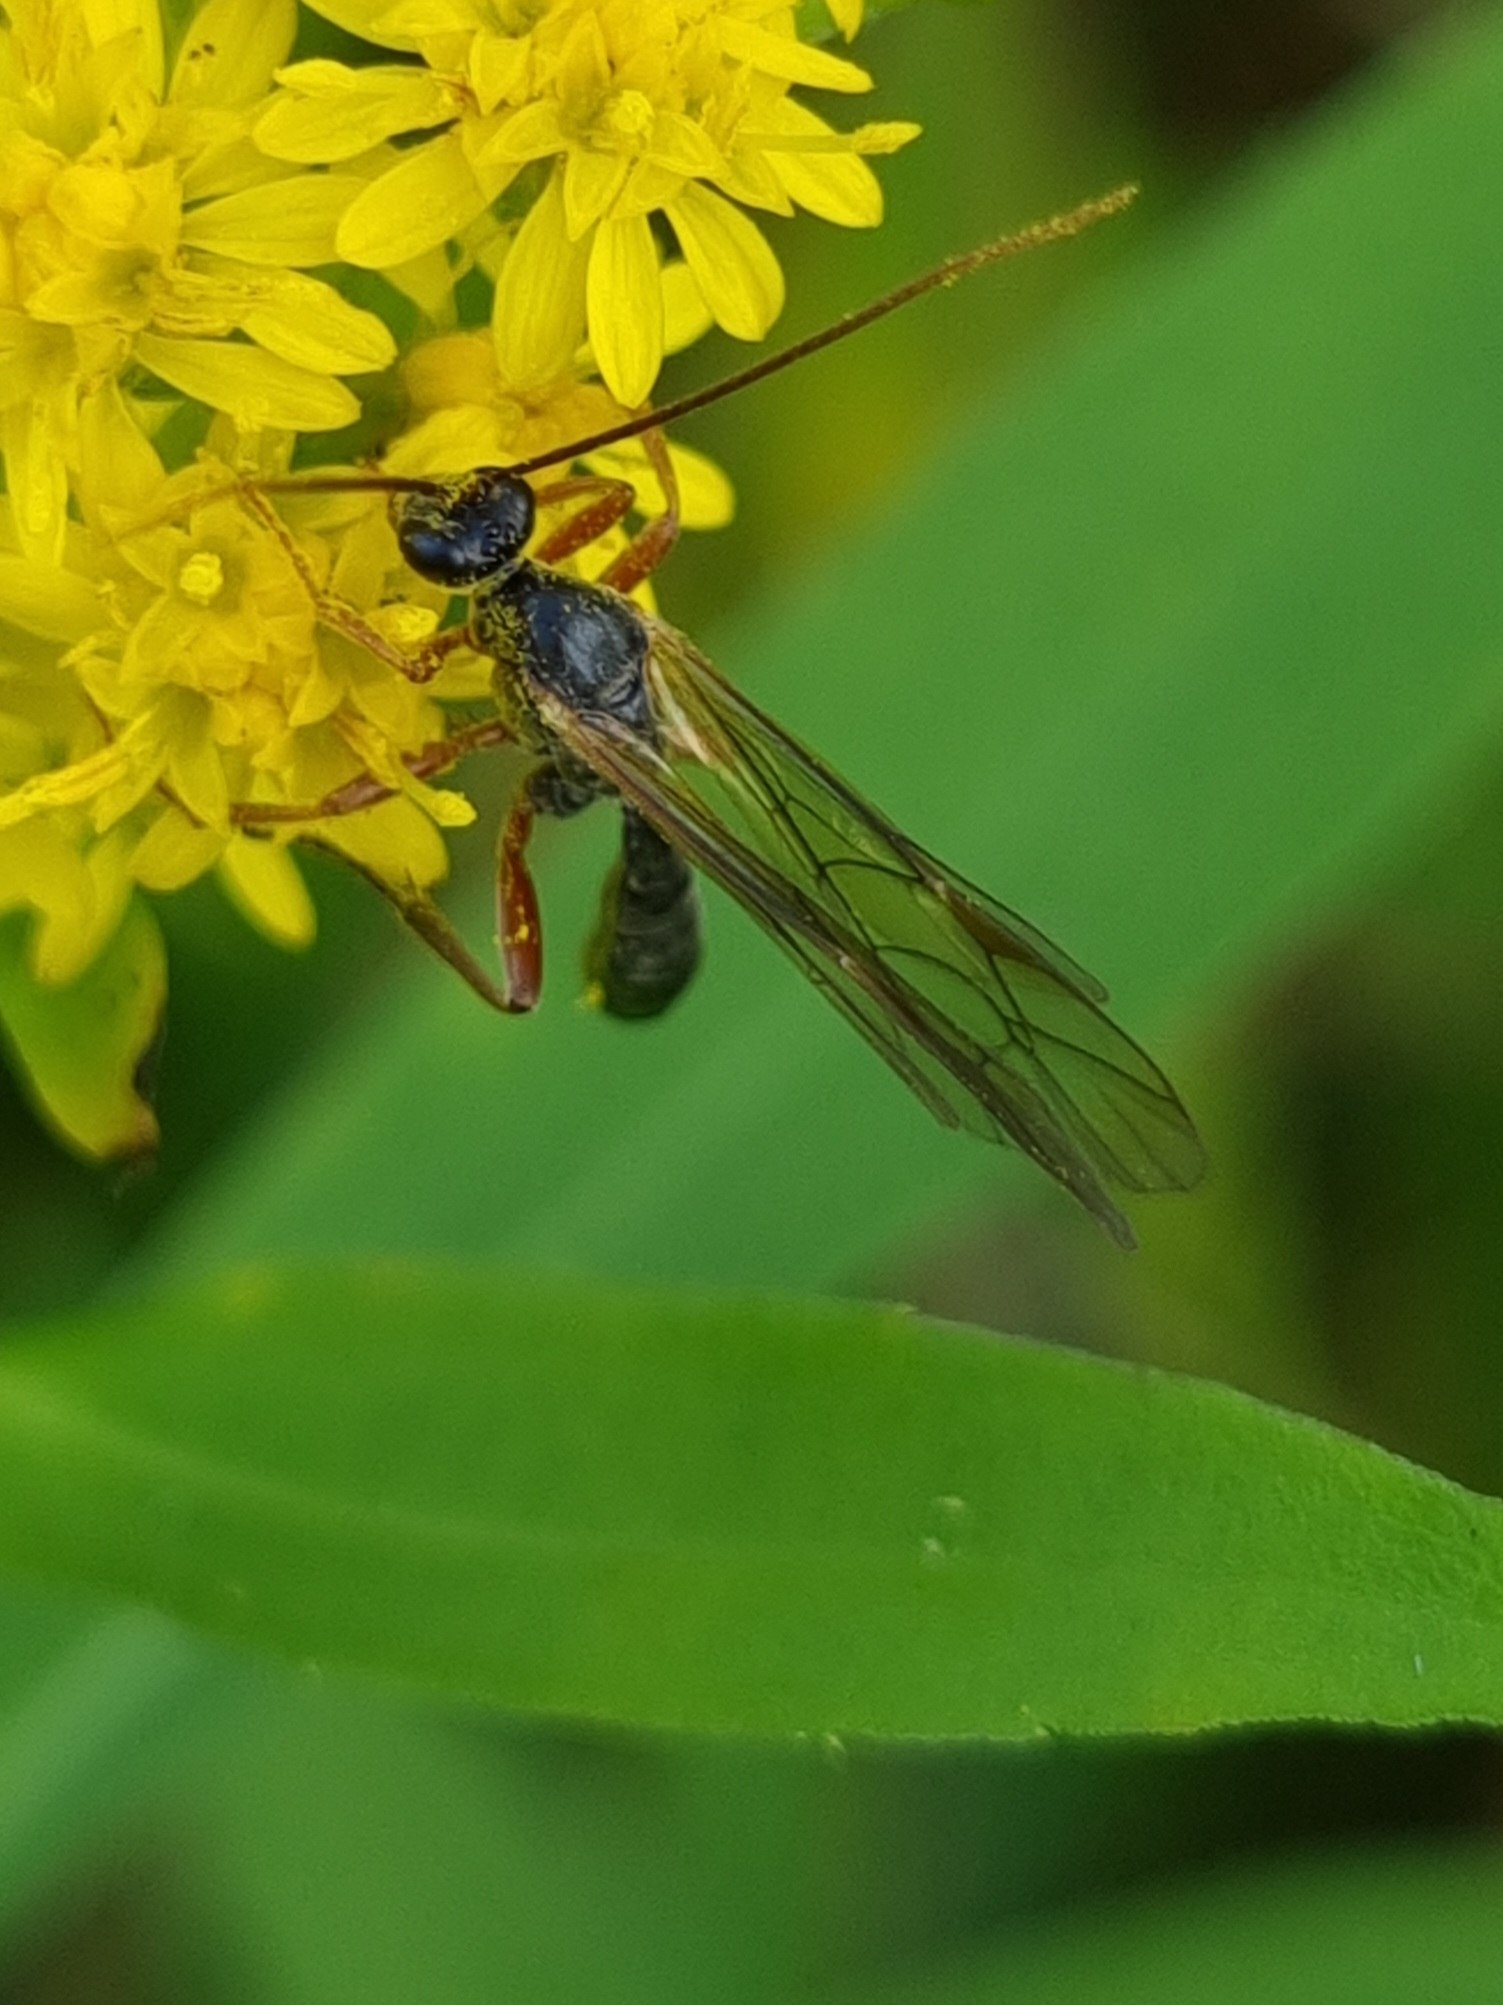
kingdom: Animalia
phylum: Arthropoda
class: Insecta
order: Hymenoptera
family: Ichneumonidae
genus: Dyspetes
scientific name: Dyspetes luteomarginatus
